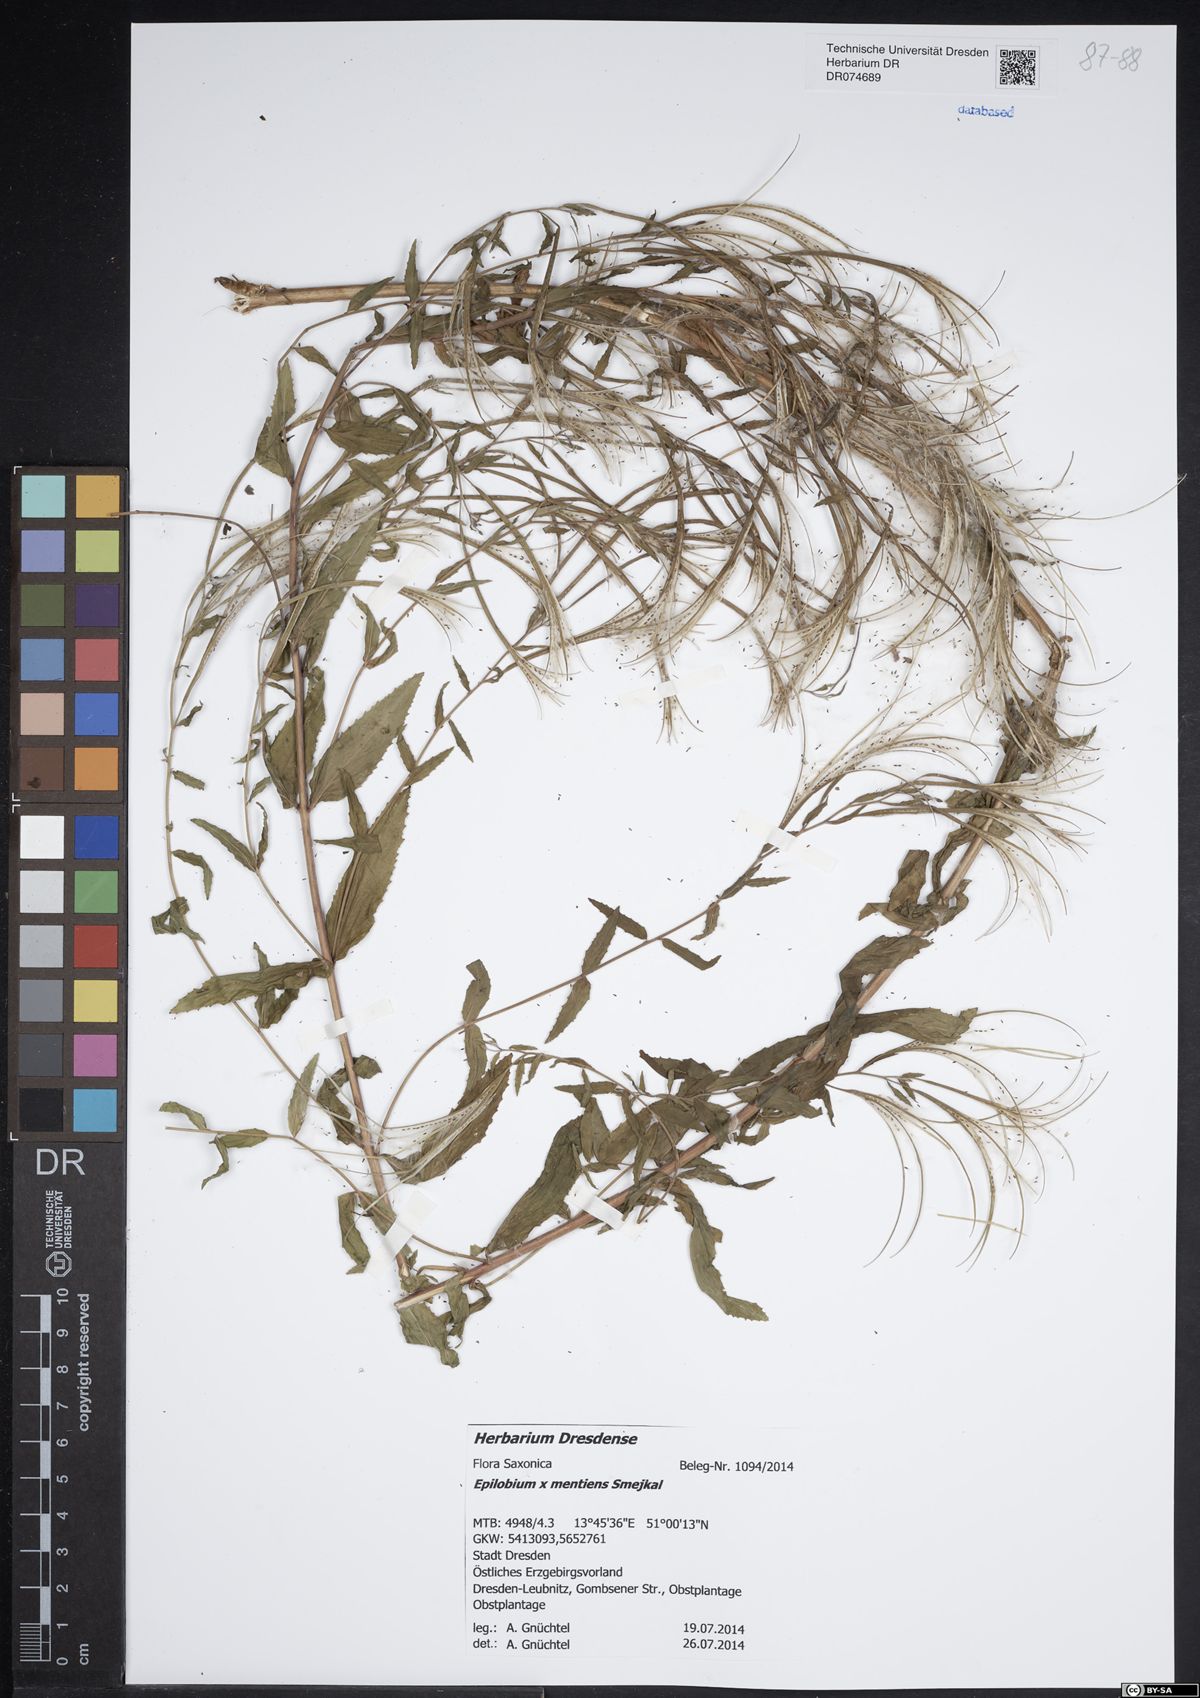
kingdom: Plantae
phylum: Tracheophyta
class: Magnoliopsida
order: Myrtales
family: Onagraceae
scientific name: Onagraceae
